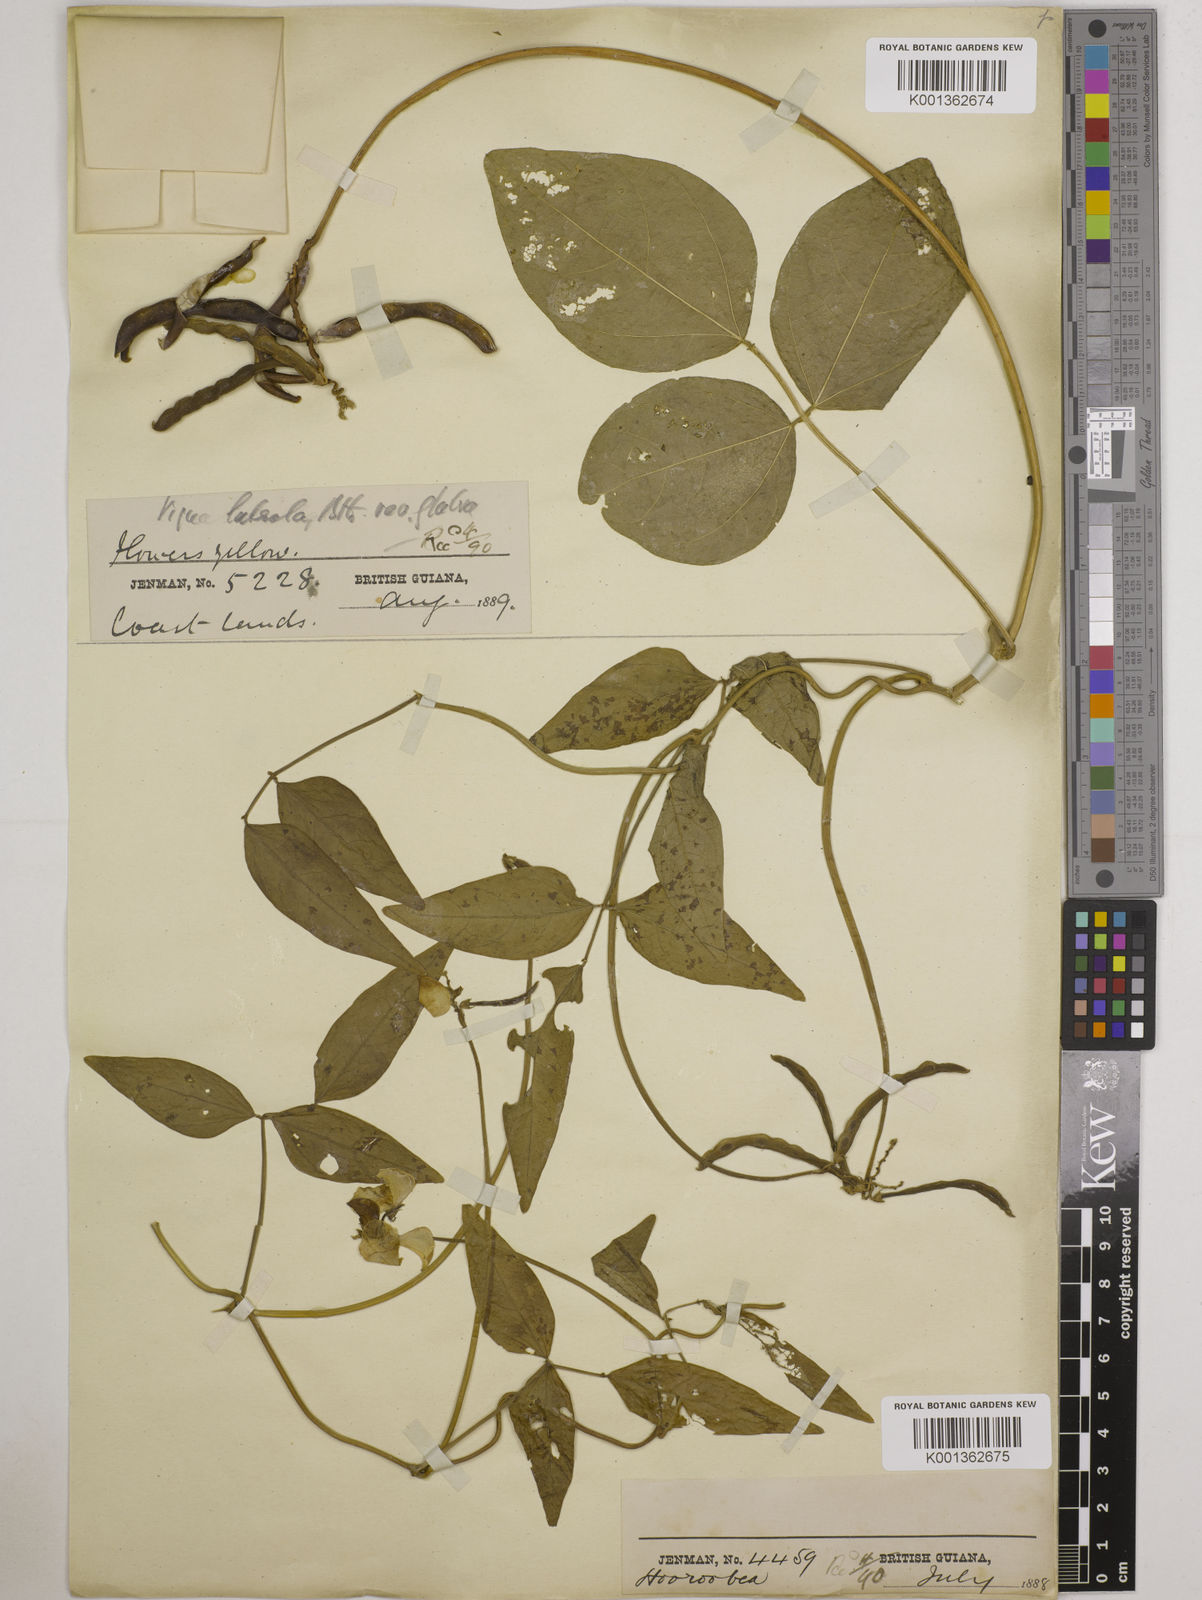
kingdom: Plantae
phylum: Tracheophyta
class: Magnoliopsida
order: Fabales
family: Fabaceae
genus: Vigna
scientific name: Vigna luteola
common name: Hairypod cowpea
